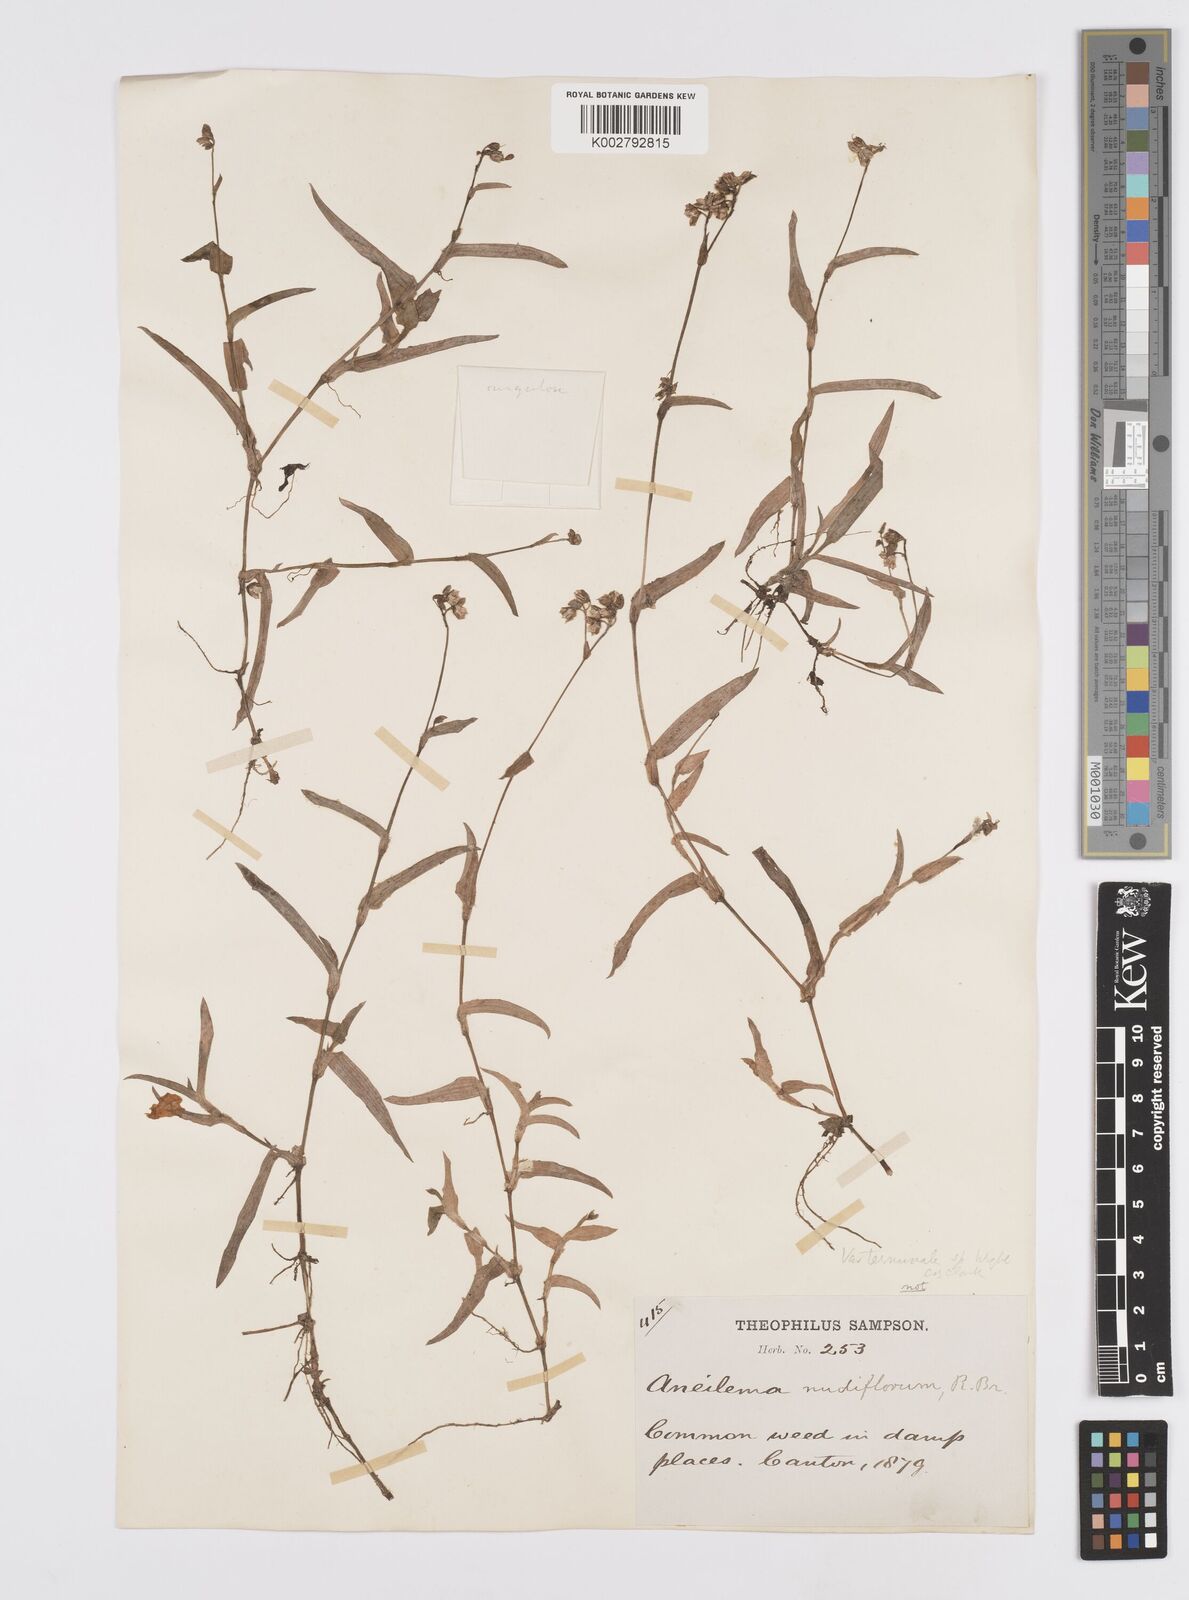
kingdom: Plantae
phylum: Tracheophyta
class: Liliopsida
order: Commelinales
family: Commelinaceae
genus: Murdannia
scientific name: Murdannia nudiflora
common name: Nakedstem dewflower
